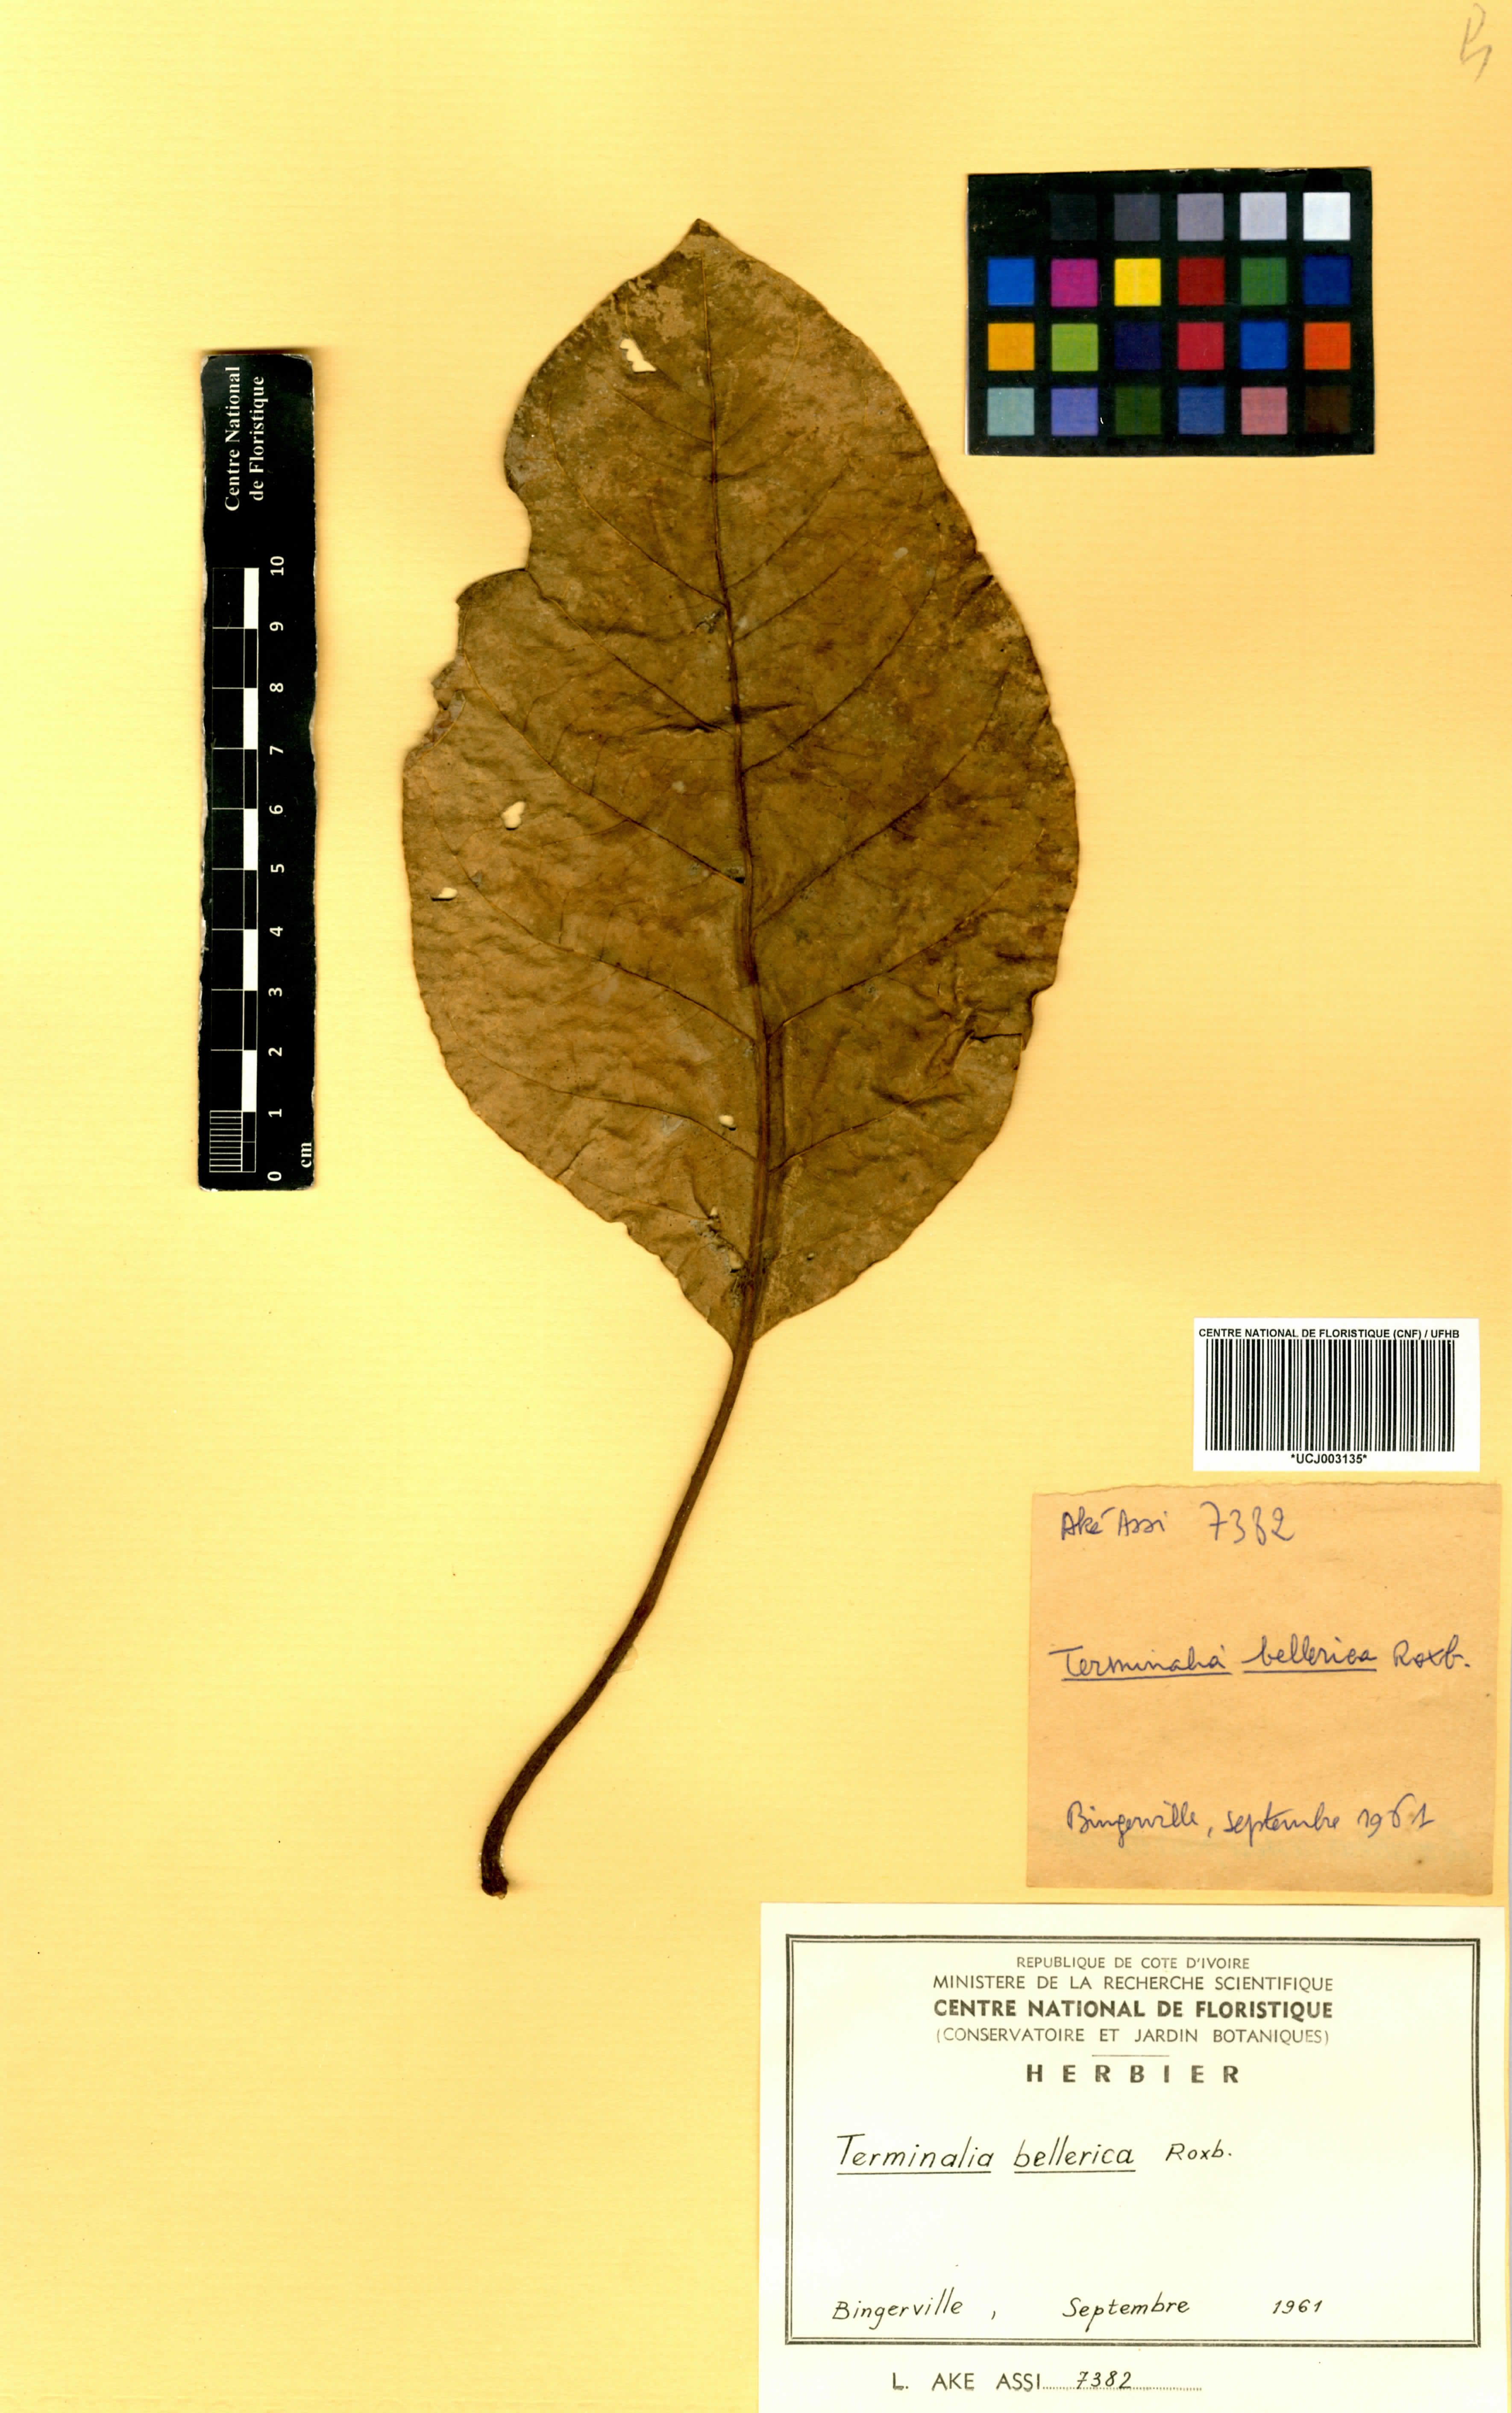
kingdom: Plantae
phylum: Tracheophyta
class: Magnoliopsida
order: Myrtales
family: Combretaceae
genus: Terminalia
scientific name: Terminalia bellirica
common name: Beleric myrobalan
